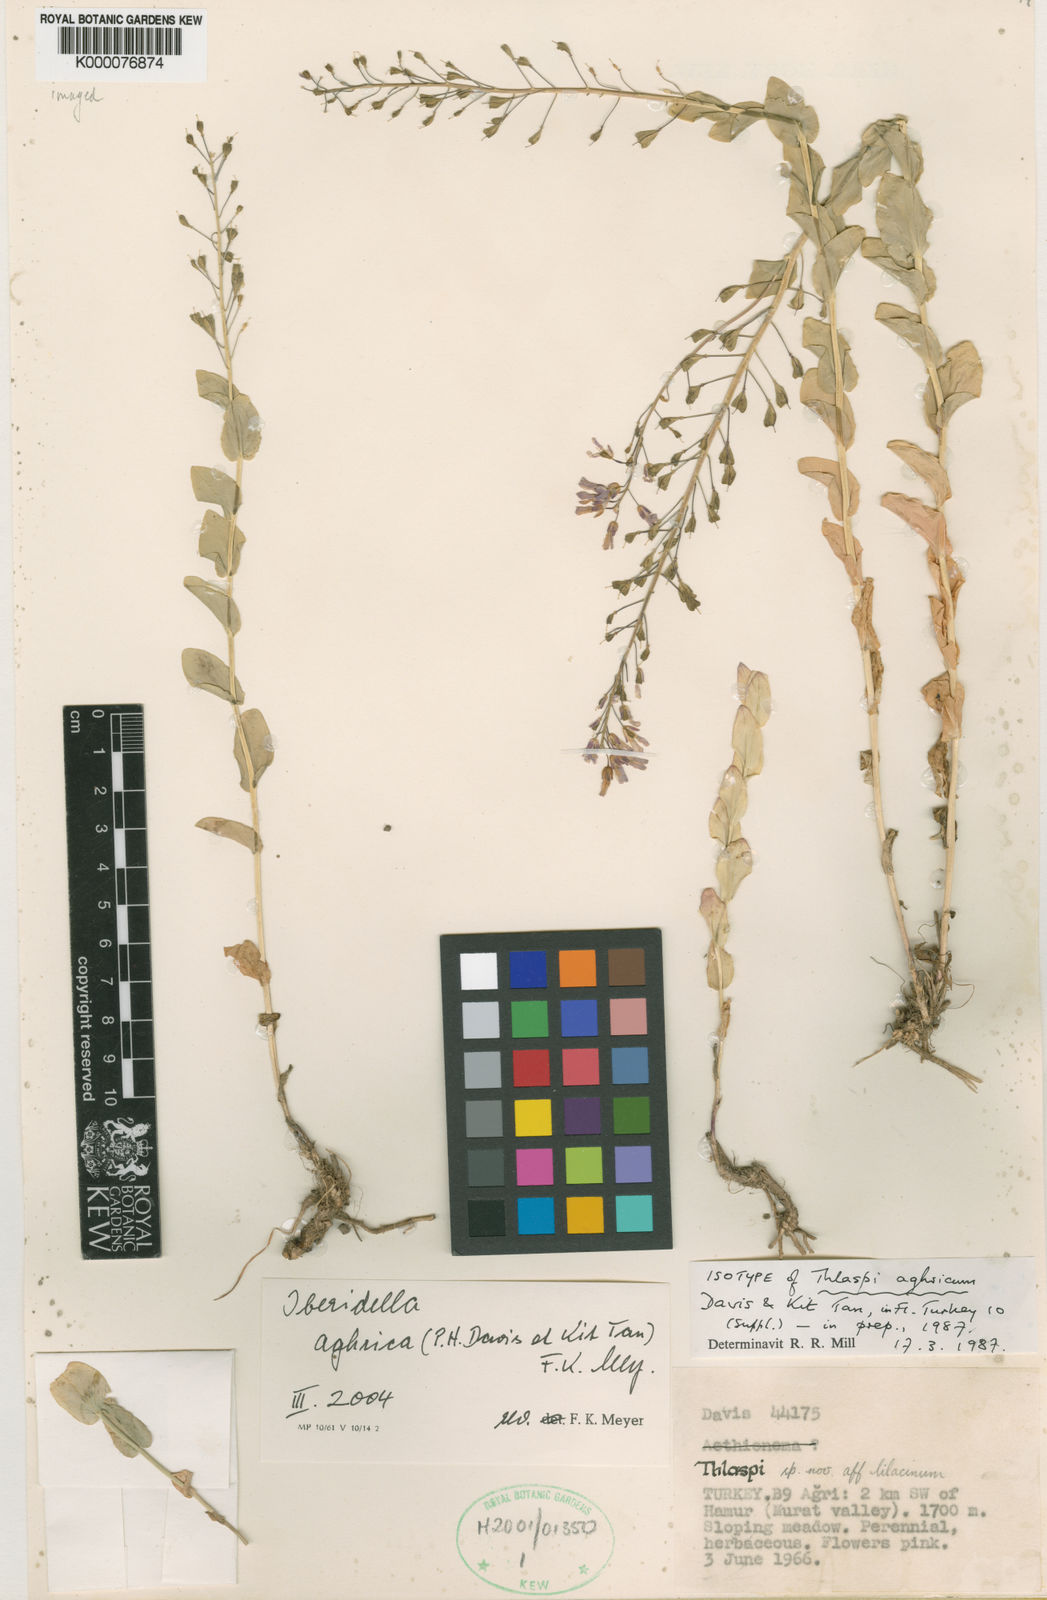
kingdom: Plantae
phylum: Tracheophyta
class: Magnoliopsida
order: Brassicales
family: Brassicaceae
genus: Aethionema
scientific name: Aethionema
